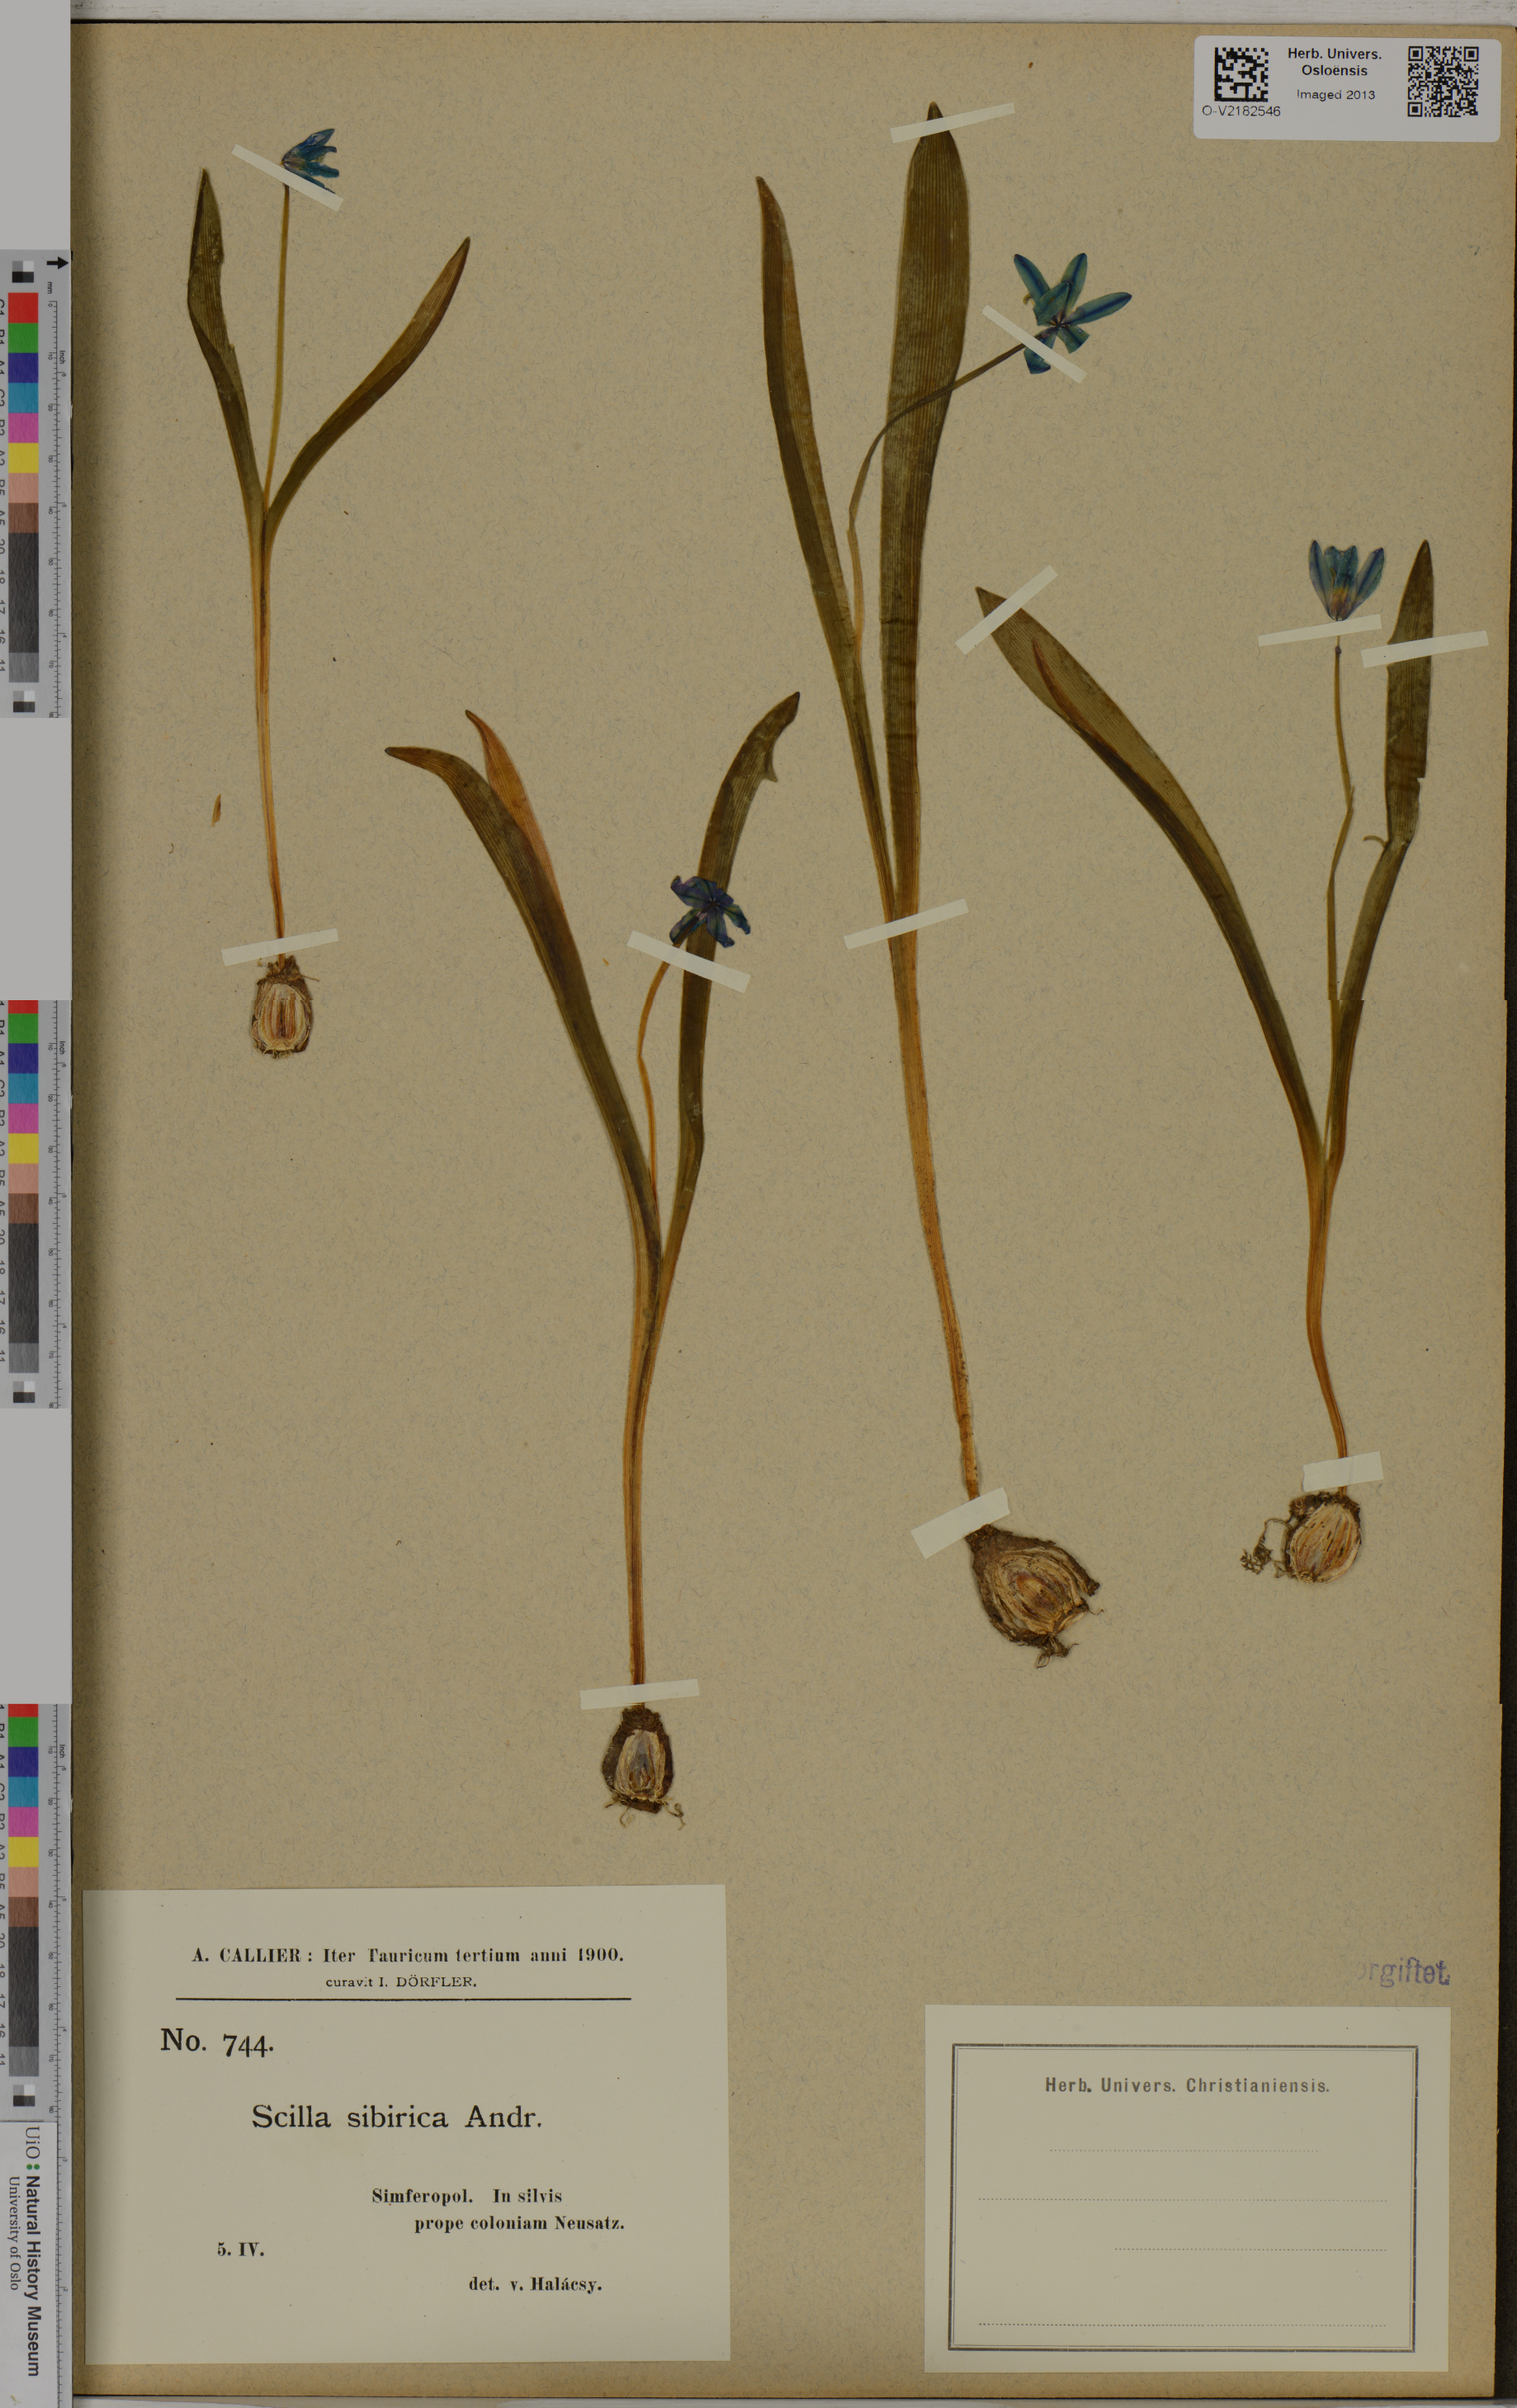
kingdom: Plantae
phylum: Tracheophyta
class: Liliopsida
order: Asparagales
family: Asparagaceae
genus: Scilla
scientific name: Scilla siberica
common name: Siberian squill
